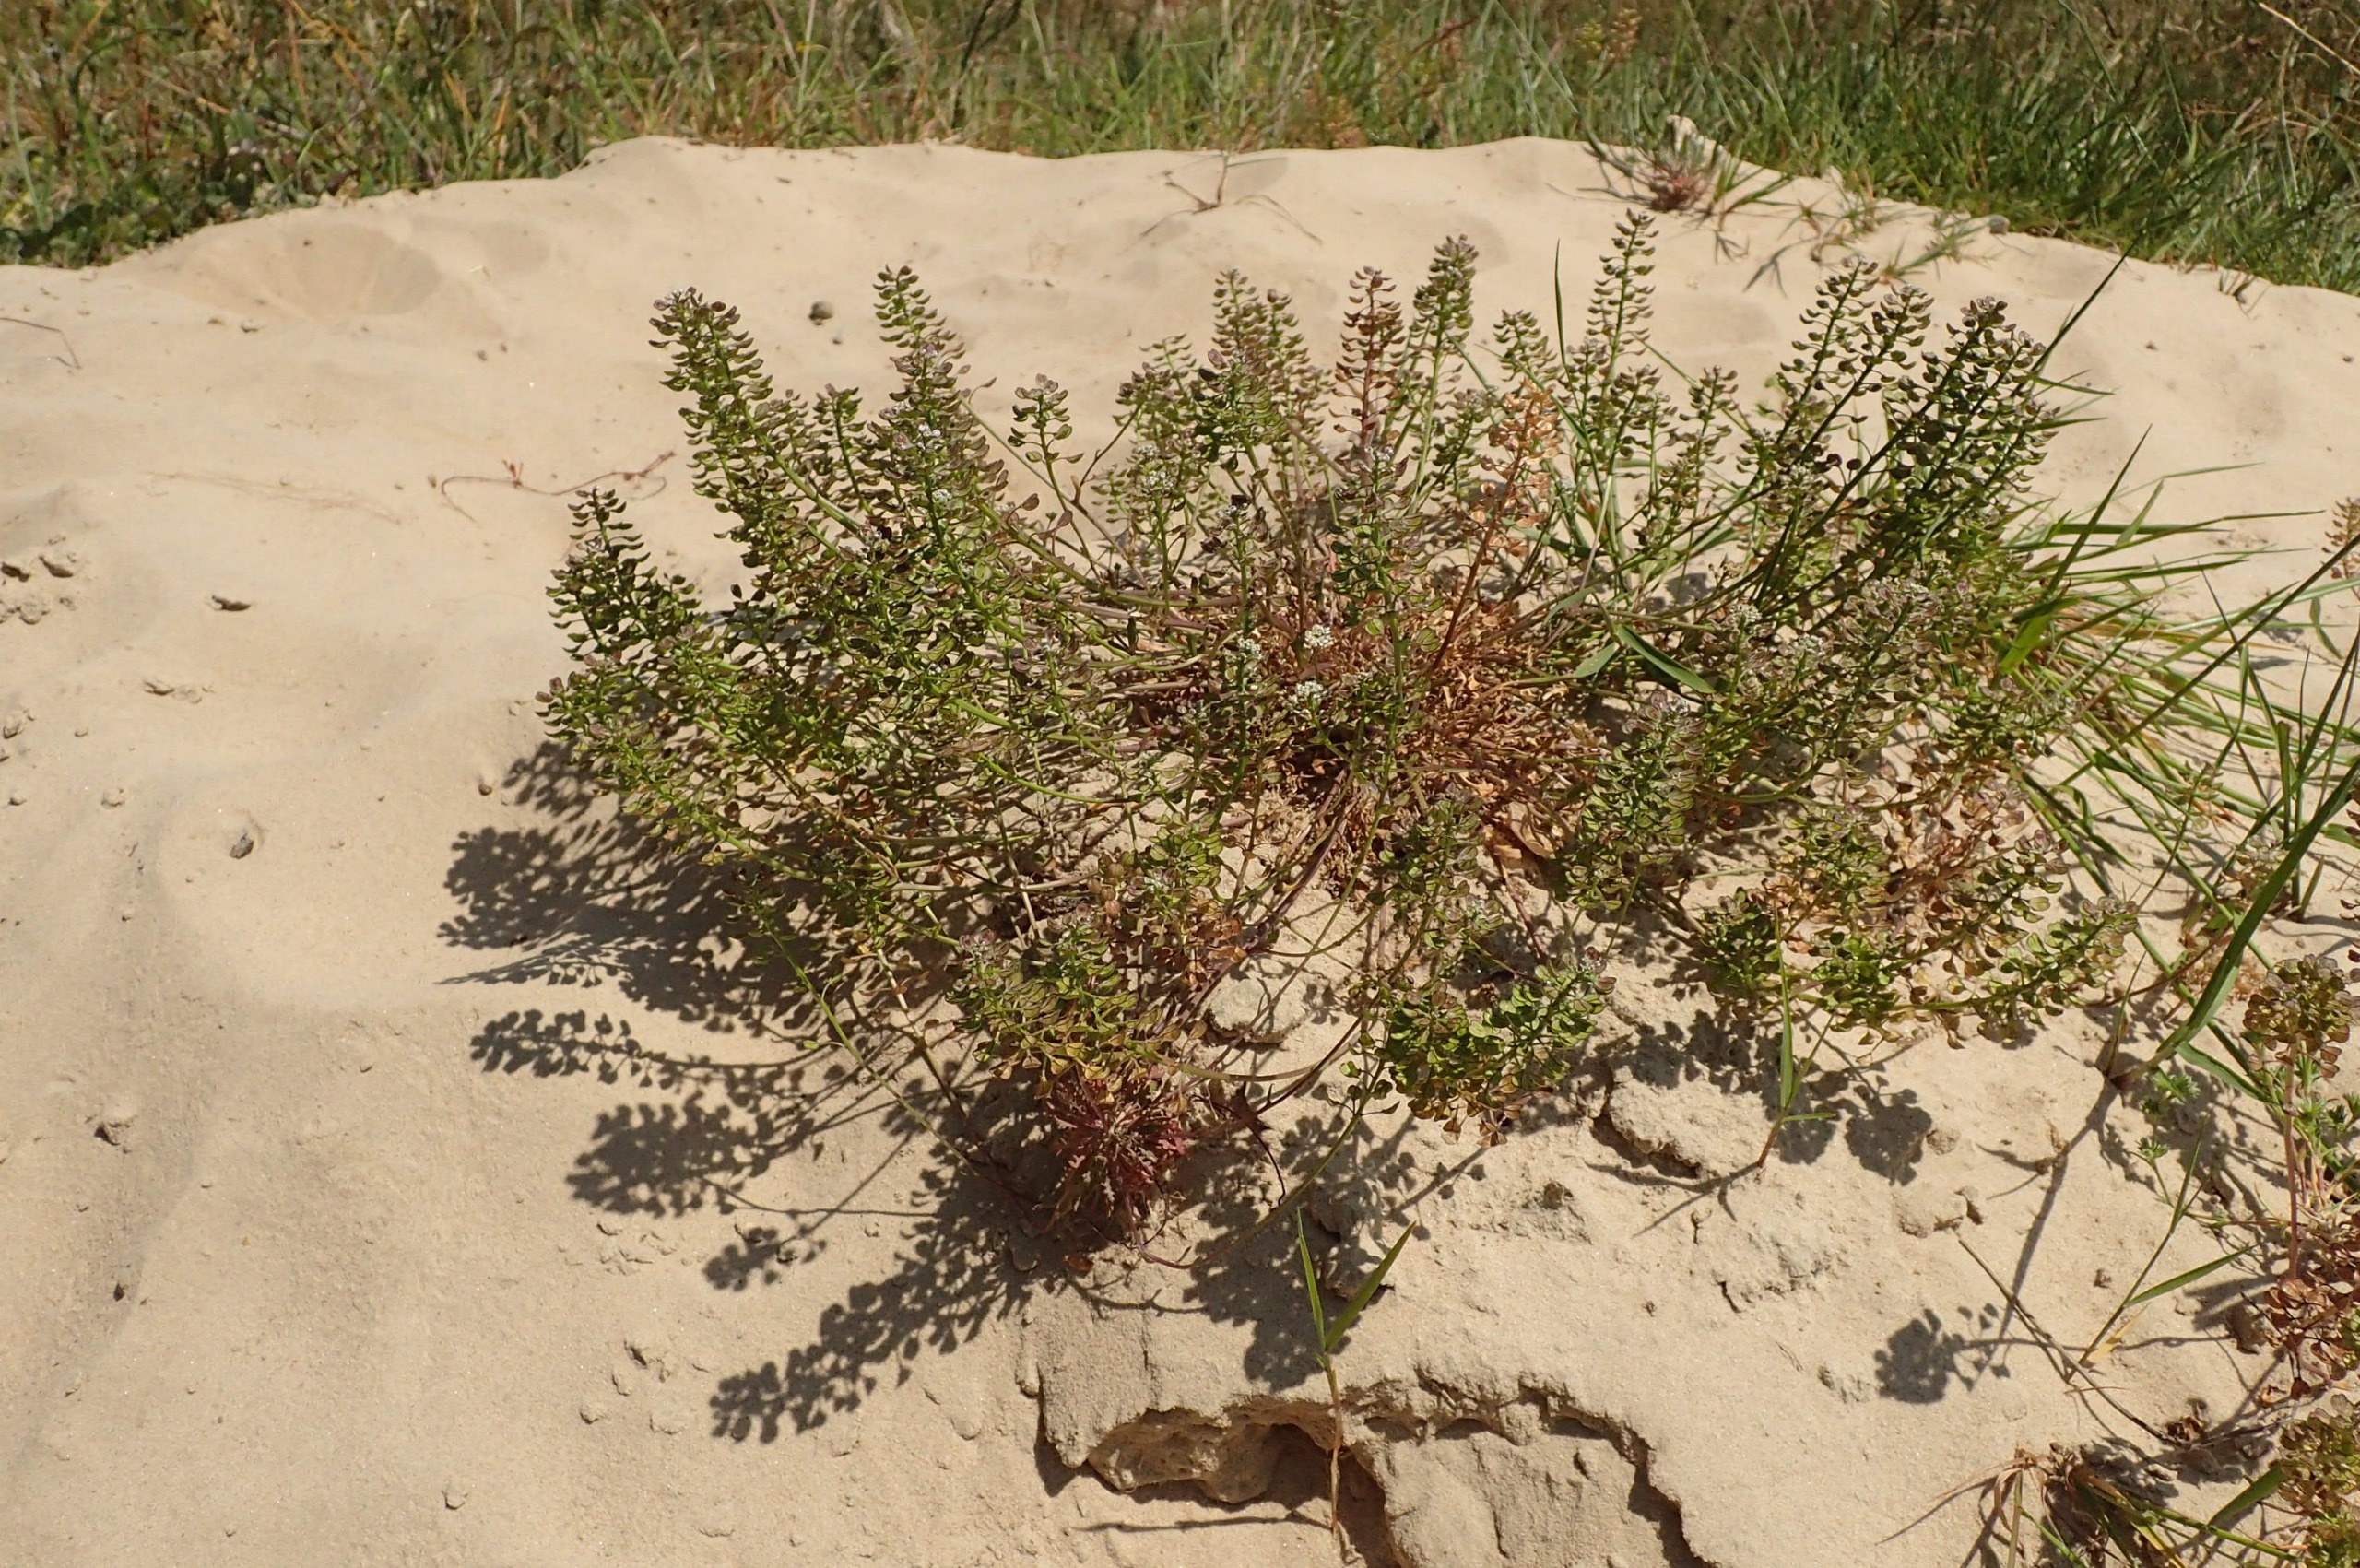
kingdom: Plantae
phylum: Tracheophyta
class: Magnoliopsida
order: Brassicales
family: Brassicaceae
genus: Teesdalia
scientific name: Teesdalia nudicaulis
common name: Flipkrave
